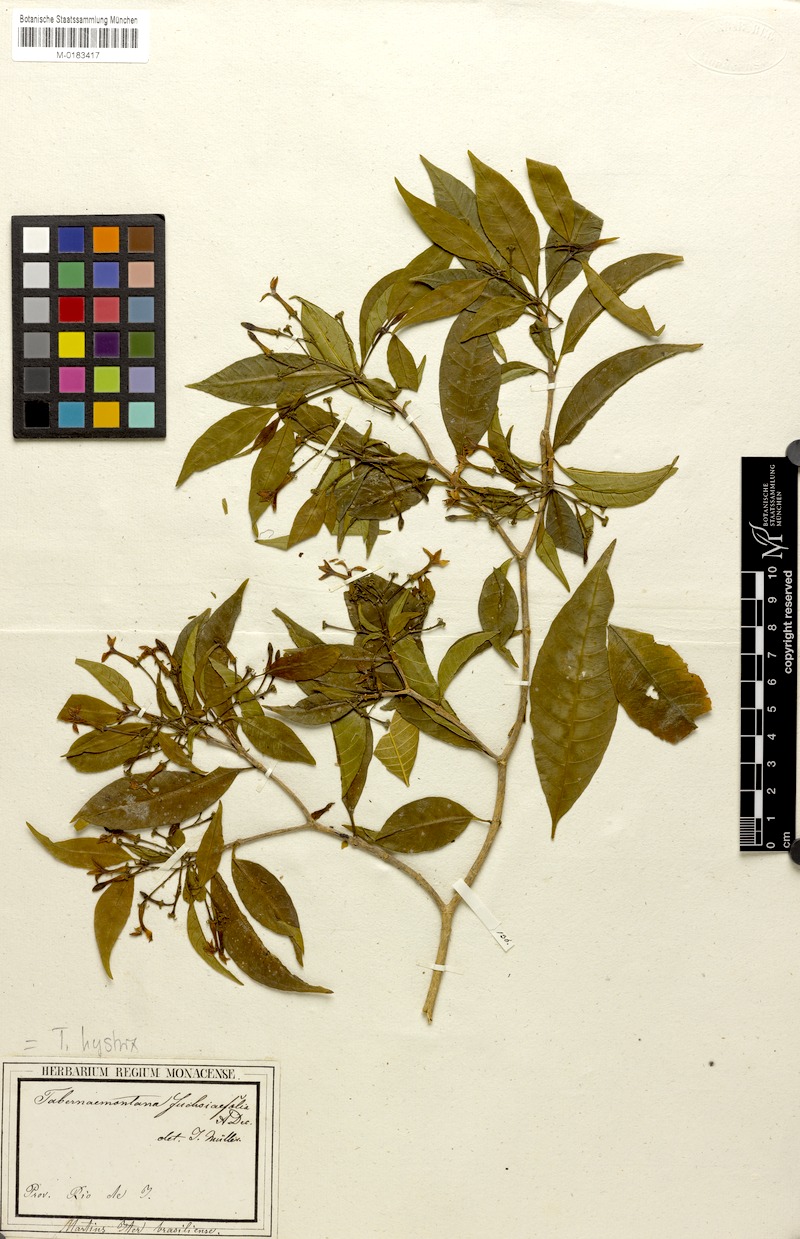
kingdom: Plantae
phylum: Tracheophyta
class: Magnoliopsida
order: Gentianales
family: Apocynaceae
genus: Tabernaemontana
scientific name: Tabernaemontana hystrix
